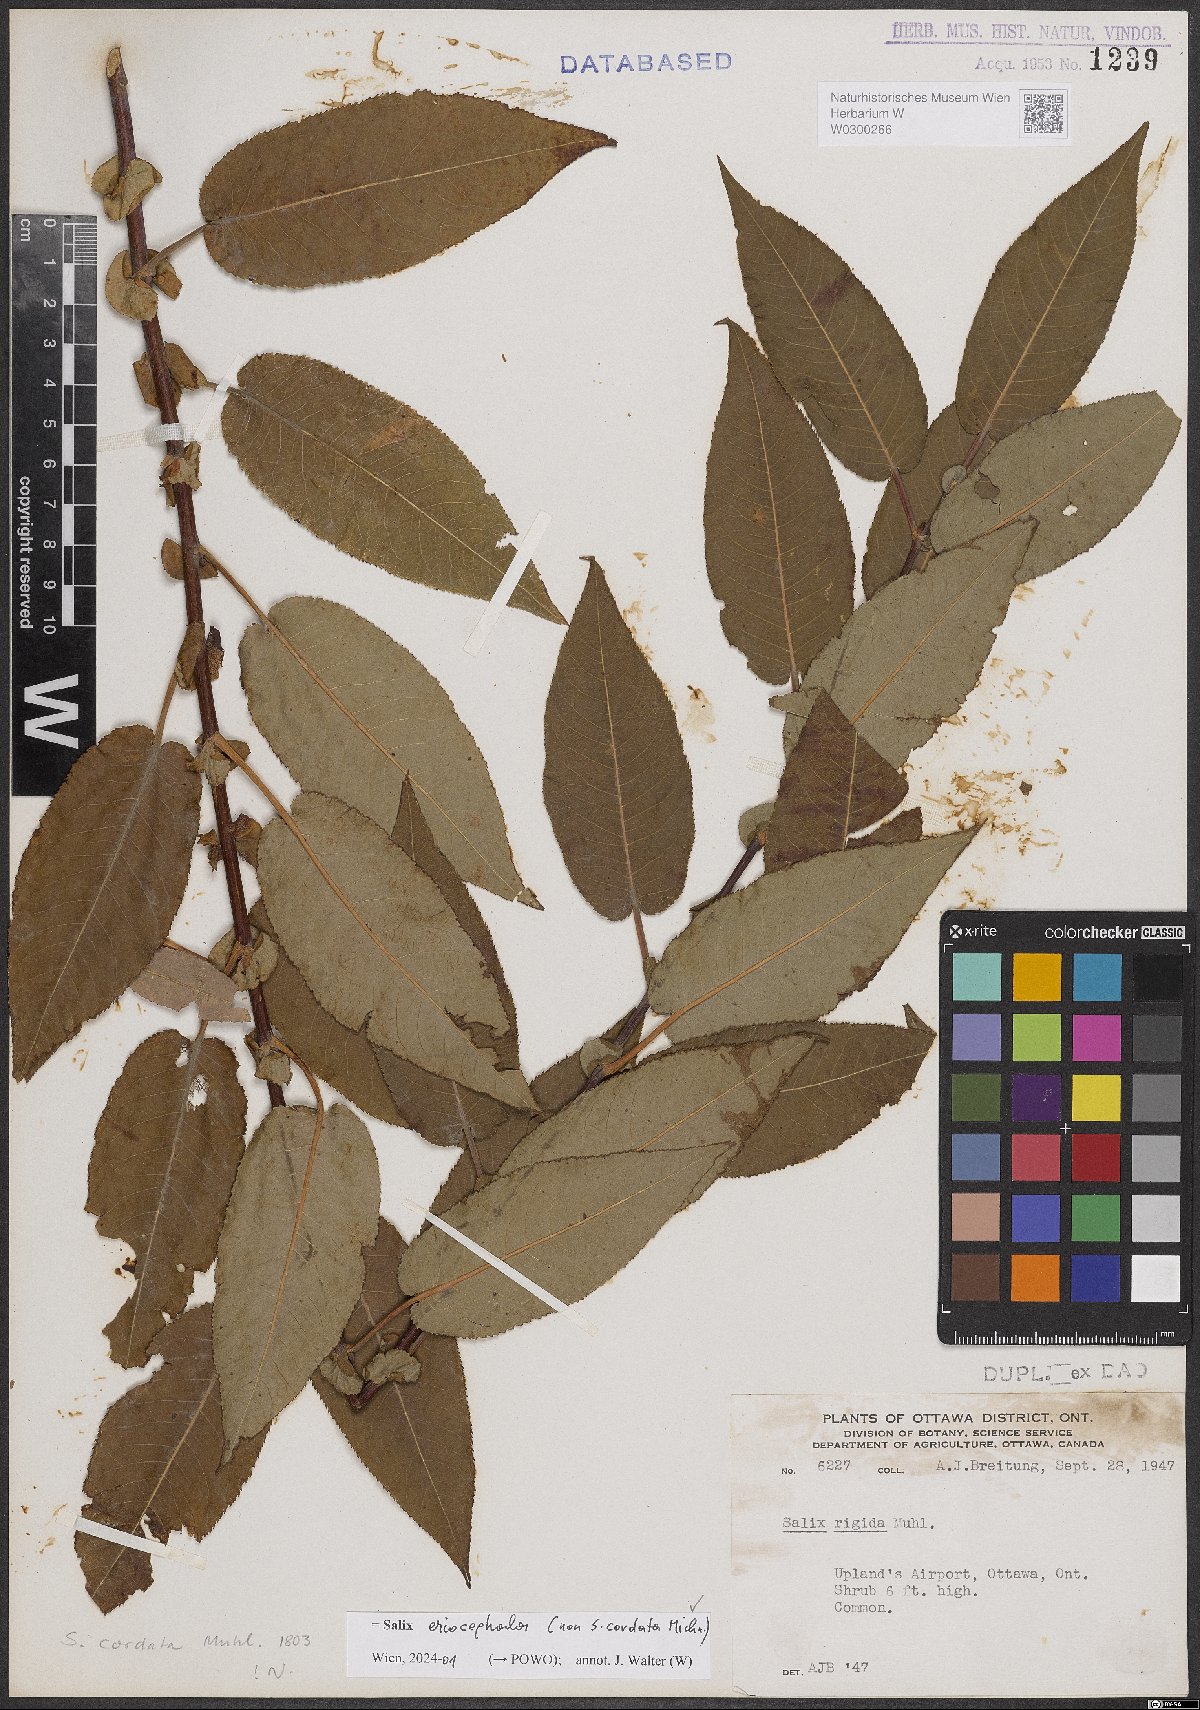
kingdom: Plantae
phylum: Tracheophyta
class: Magnoliopsida
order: Malpighiales
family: Salicaceae
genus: Salix
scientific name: Salix eriocephala
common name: Heart-leaved willow
